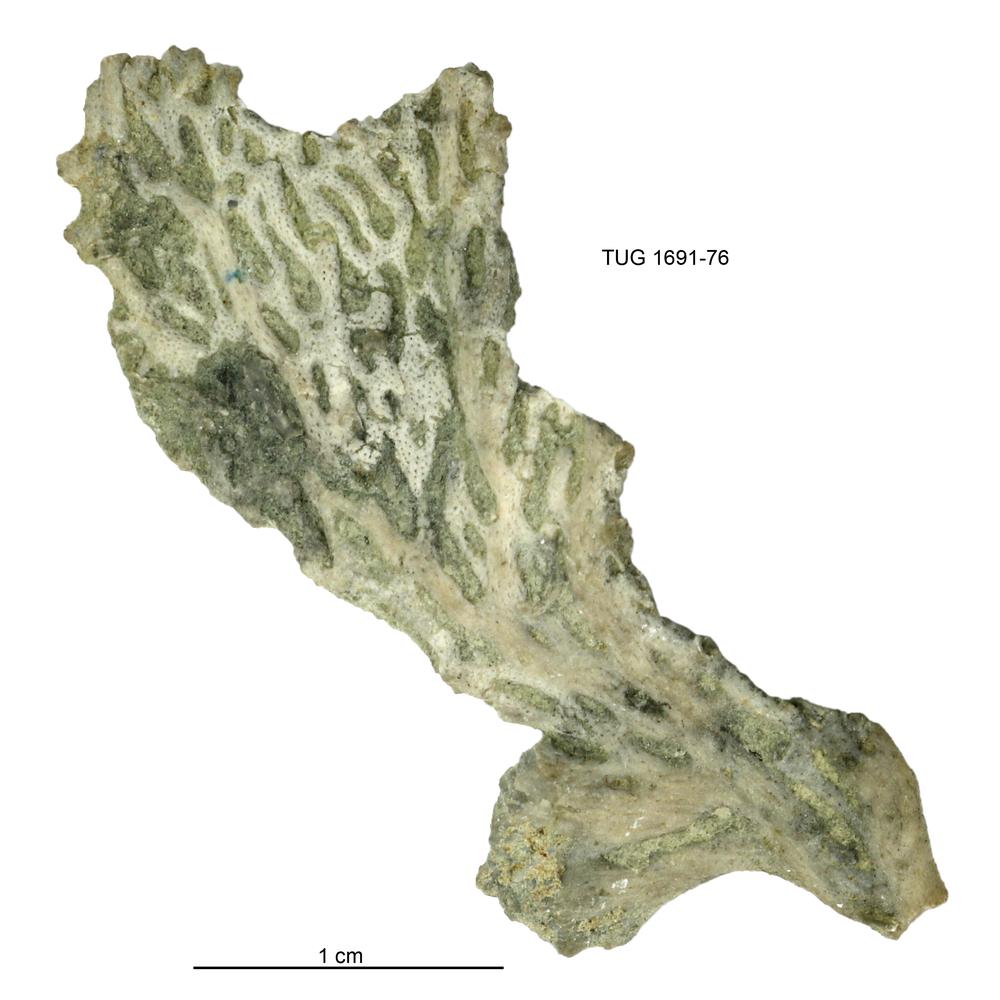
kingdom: Animalia
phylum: Bryozoa
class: Stenolaemata
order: Fenestrida
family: Phylloporinidae
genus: Aluverina
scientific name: Aluverina multiporata
